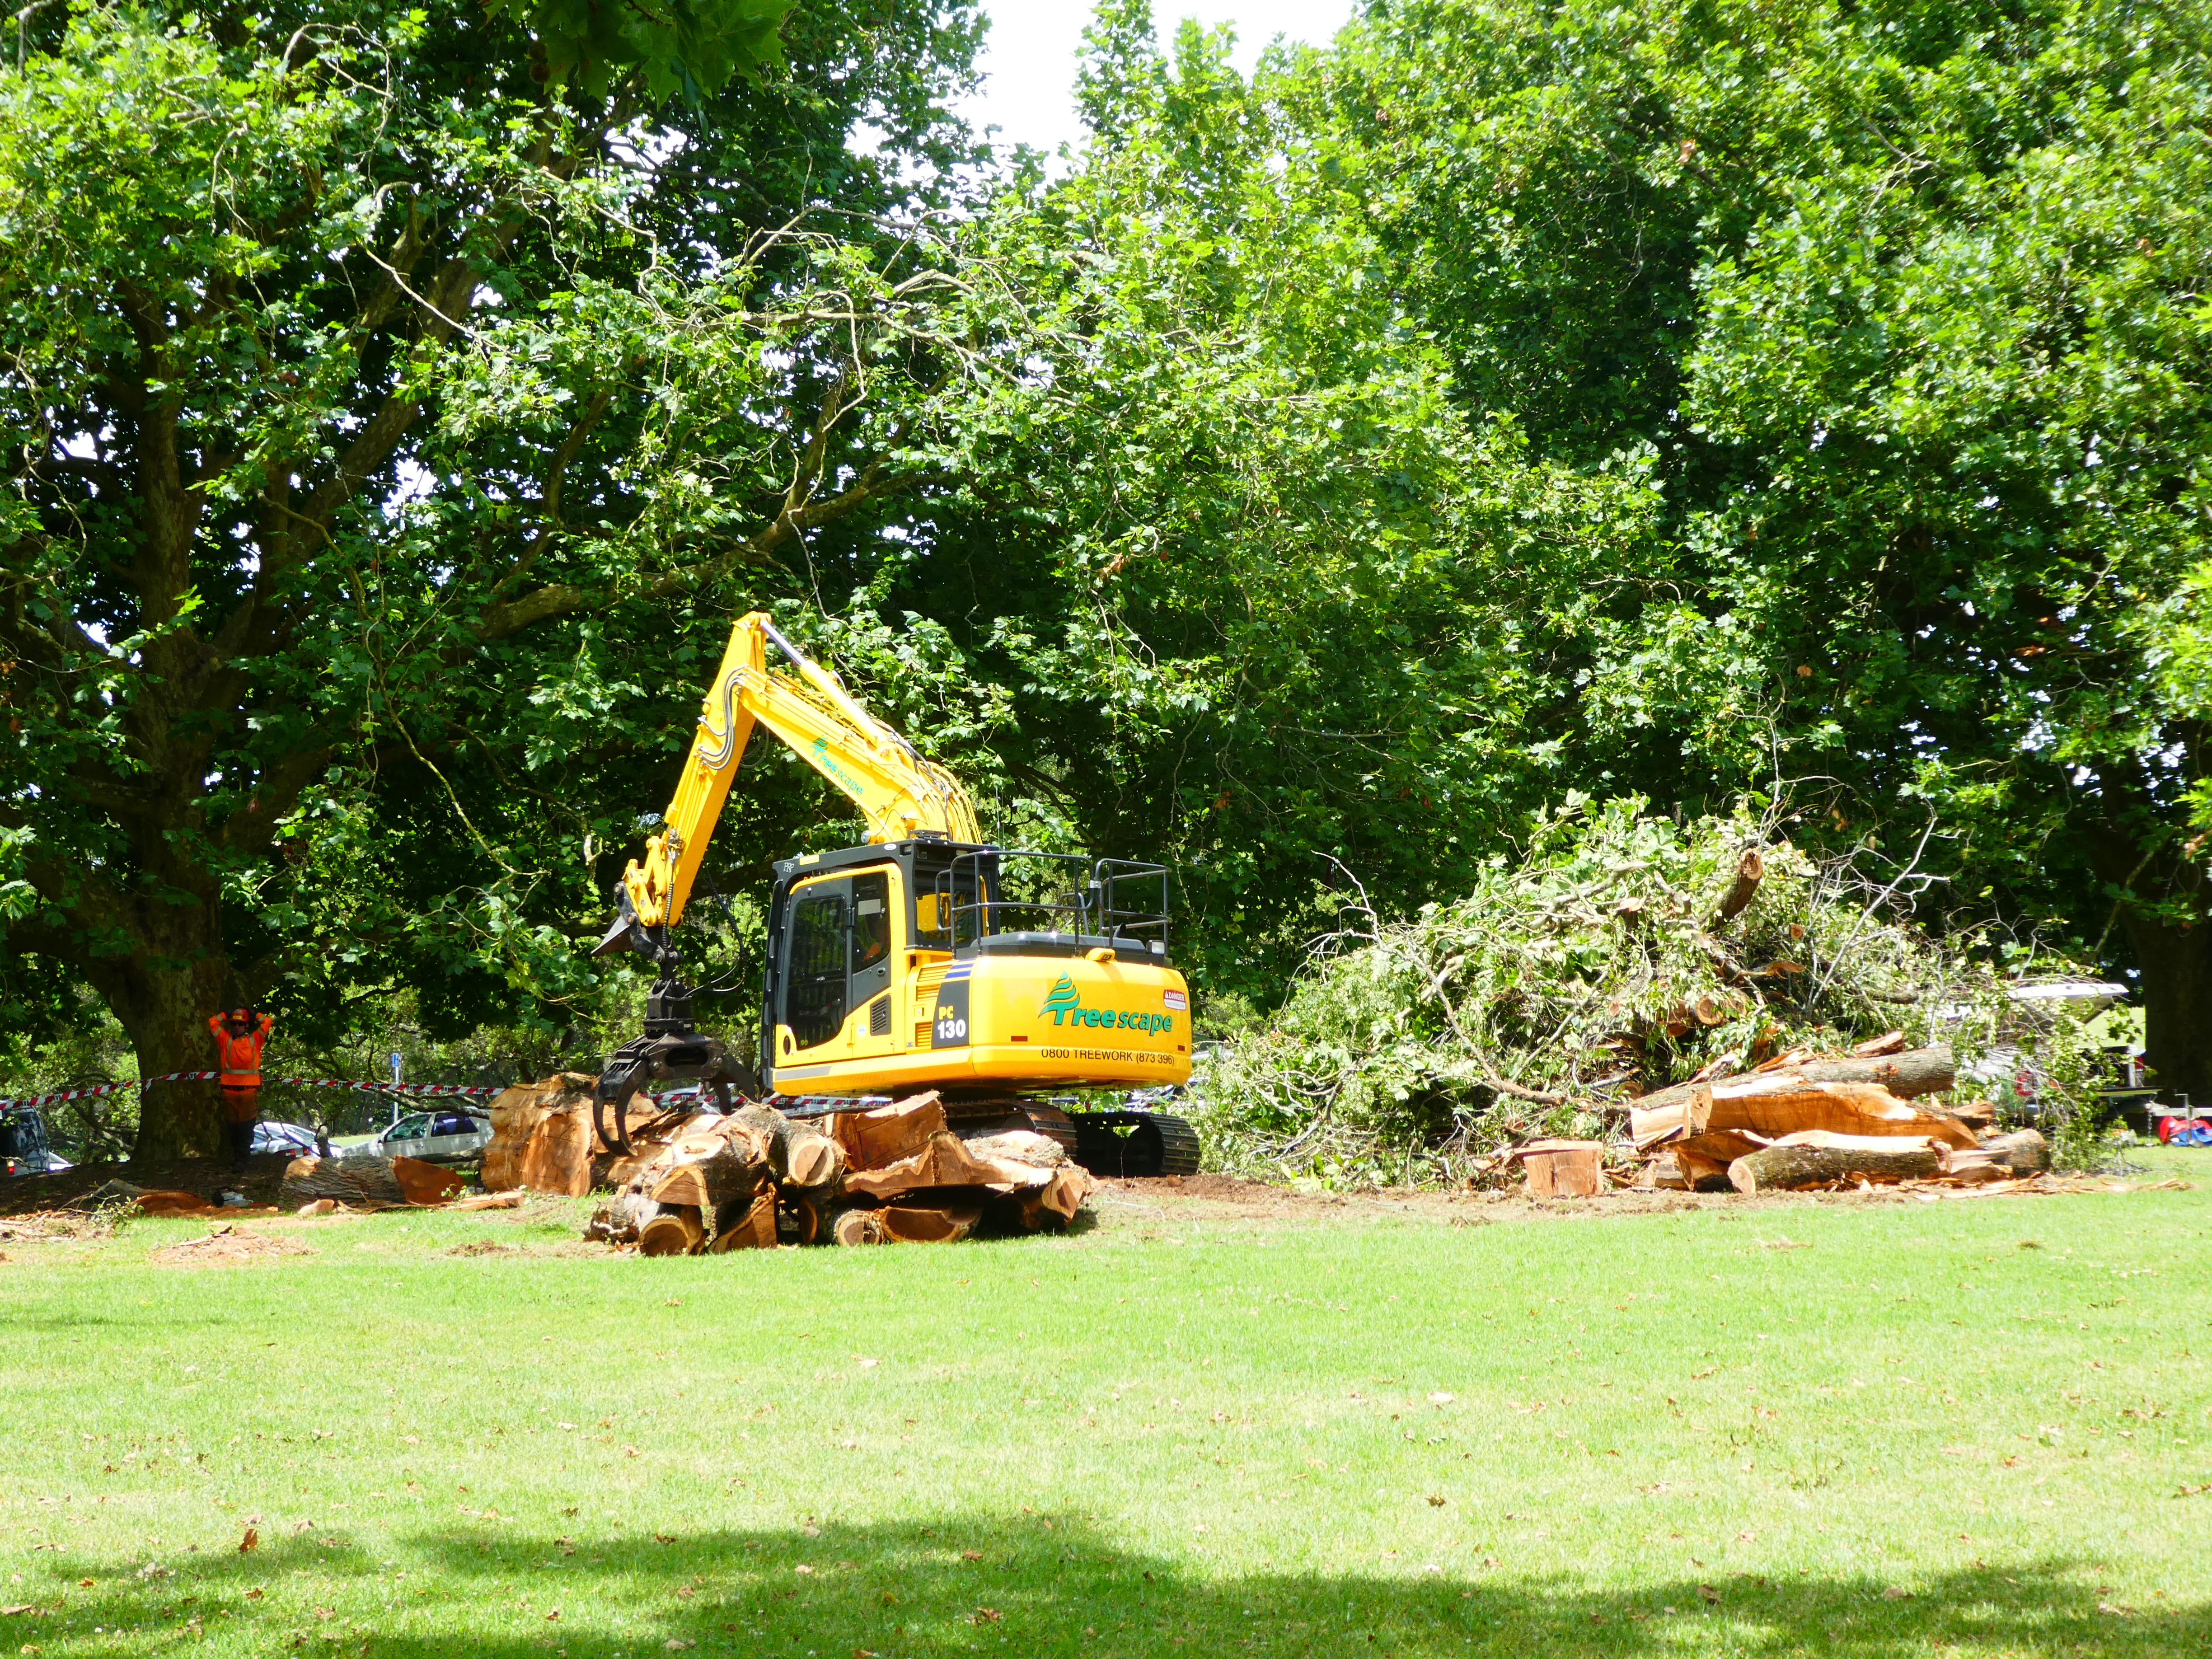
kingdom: Plantae
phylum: Tracheophyta
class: Magnoliopsida
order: Rosales
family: Ulmaceae
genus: Ulmus
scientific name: Ulmus glabra
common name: Wych elm
